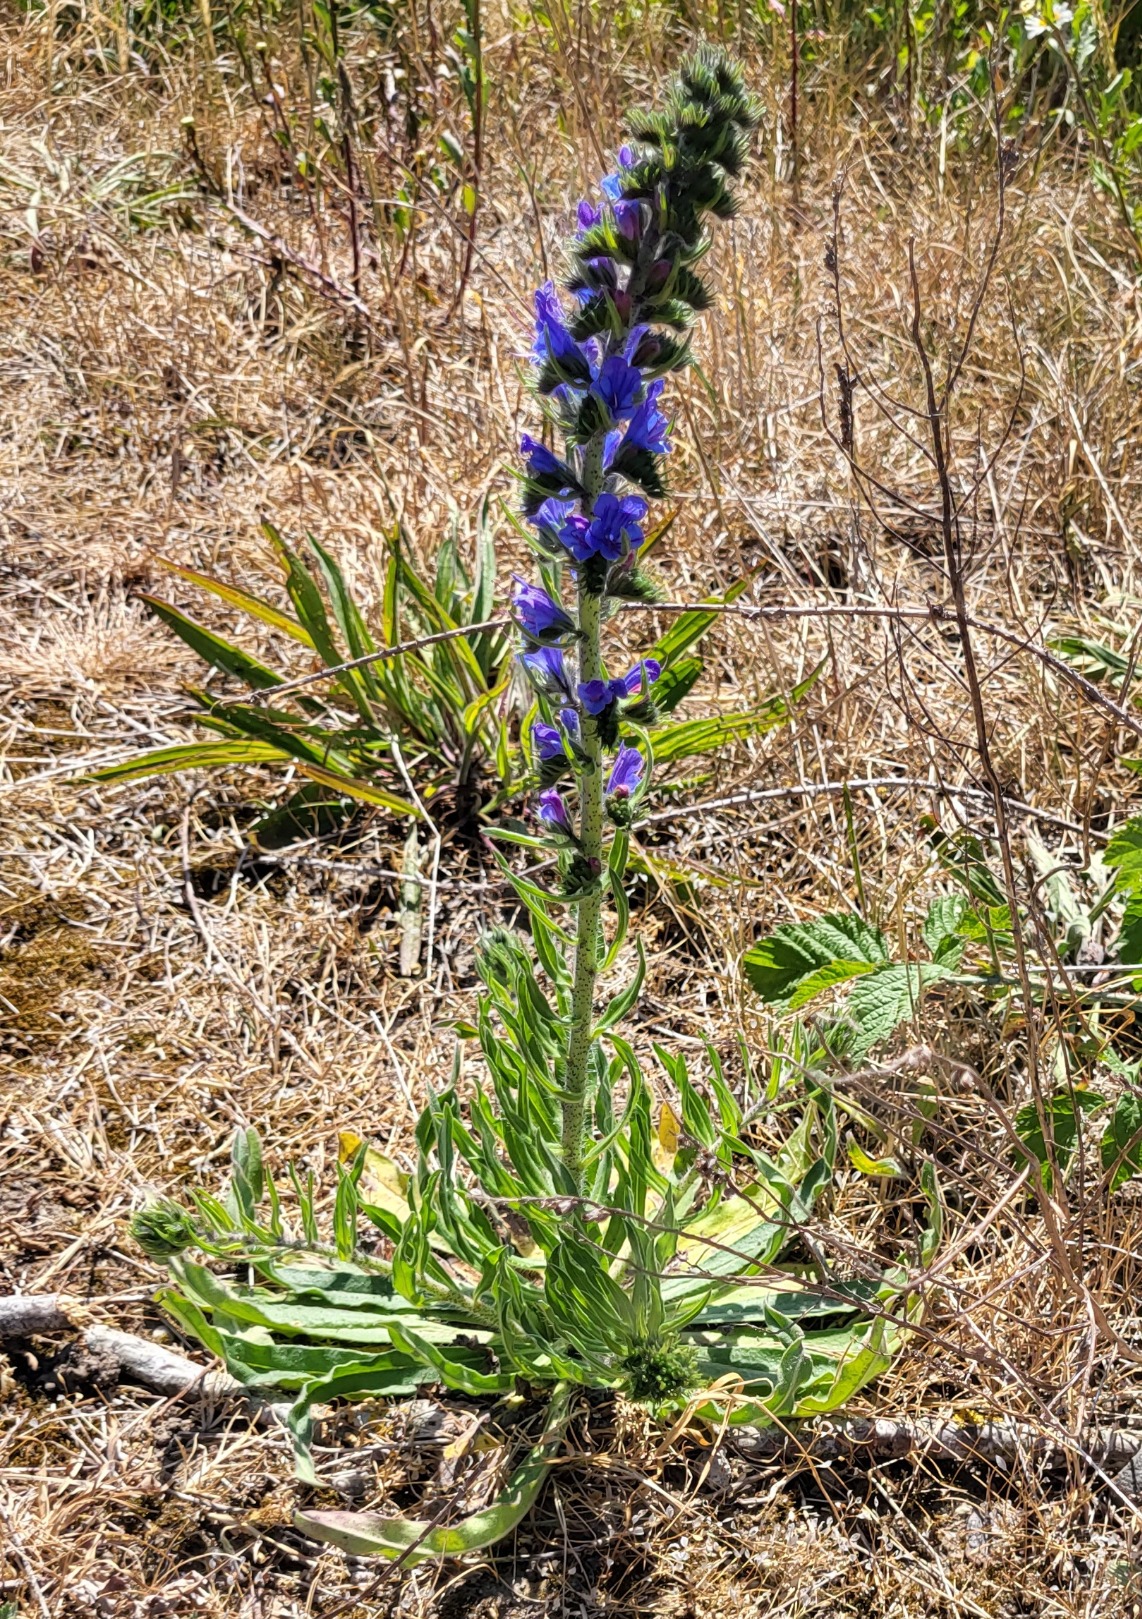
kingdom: Plantae
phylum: Tracheophyta
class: Magnoliopsida
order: Boraginales
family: Boraginaceae
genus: Echium
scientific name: Echium vulgare
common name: Slangehoved
